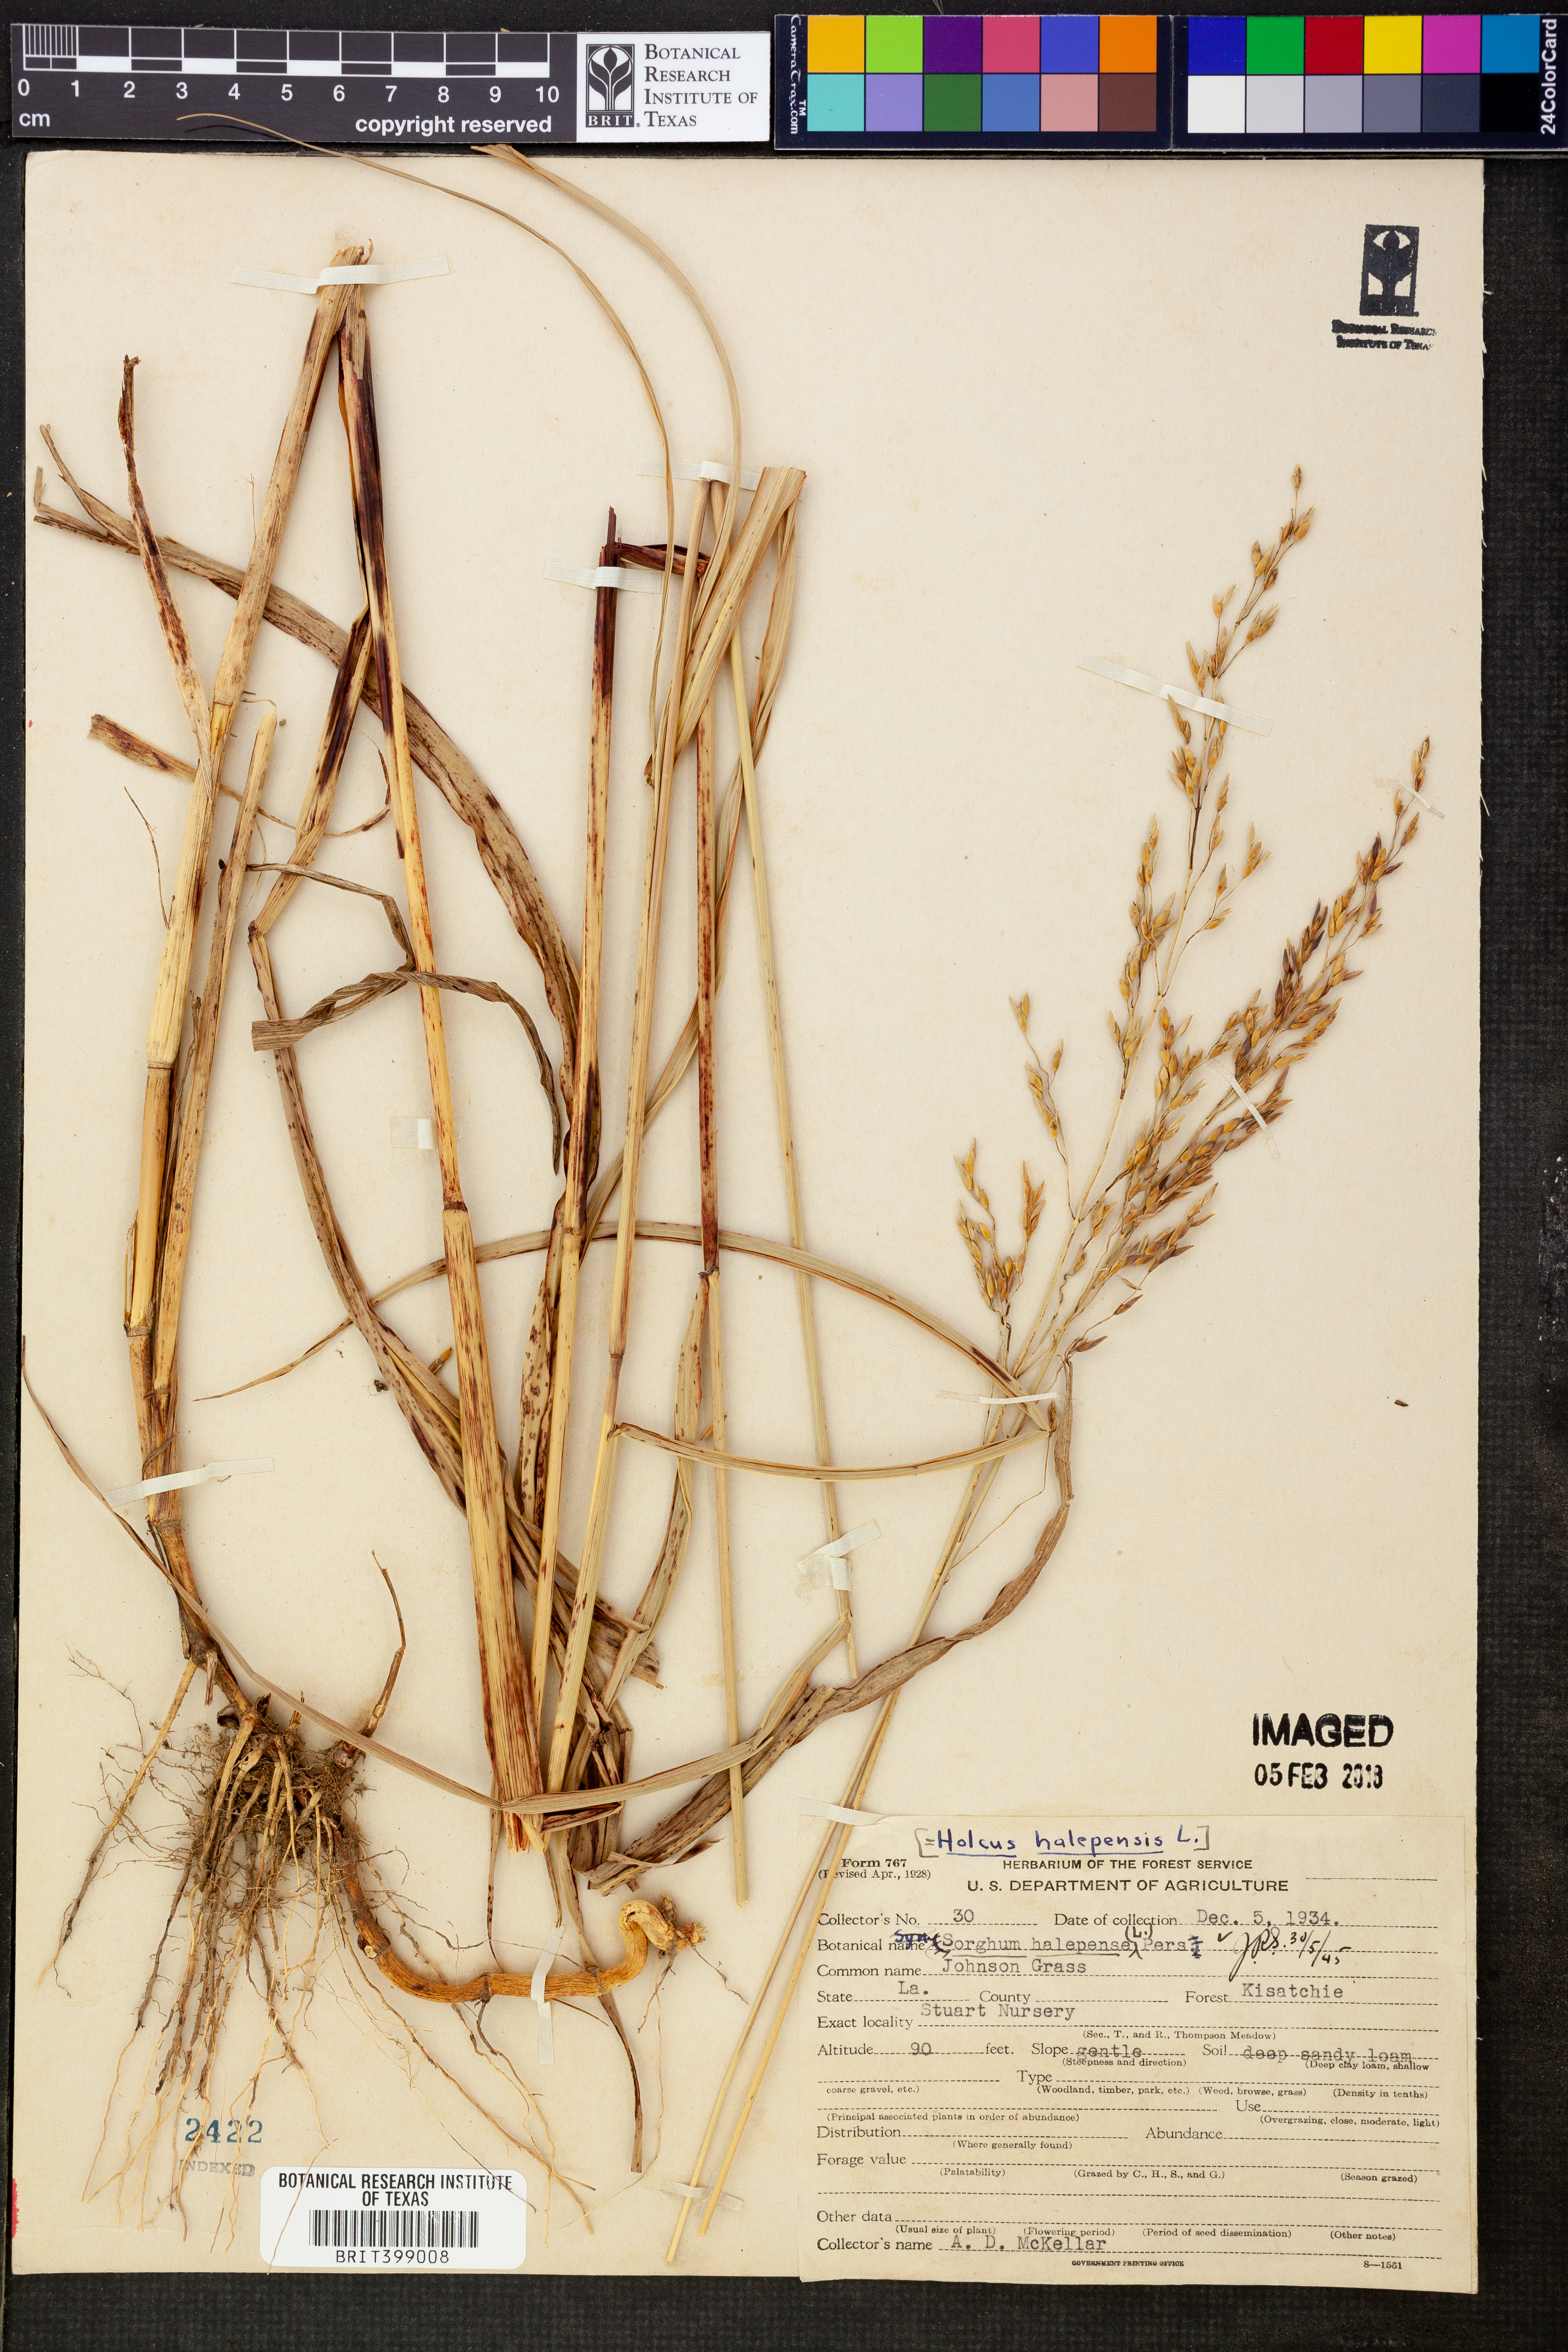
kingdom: Plantae
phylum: Tracheophyta
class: Liliopsida
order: Poales
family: Poaceae
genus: Sorghum
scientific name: Sorghum halepense
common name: Johnson-grass
